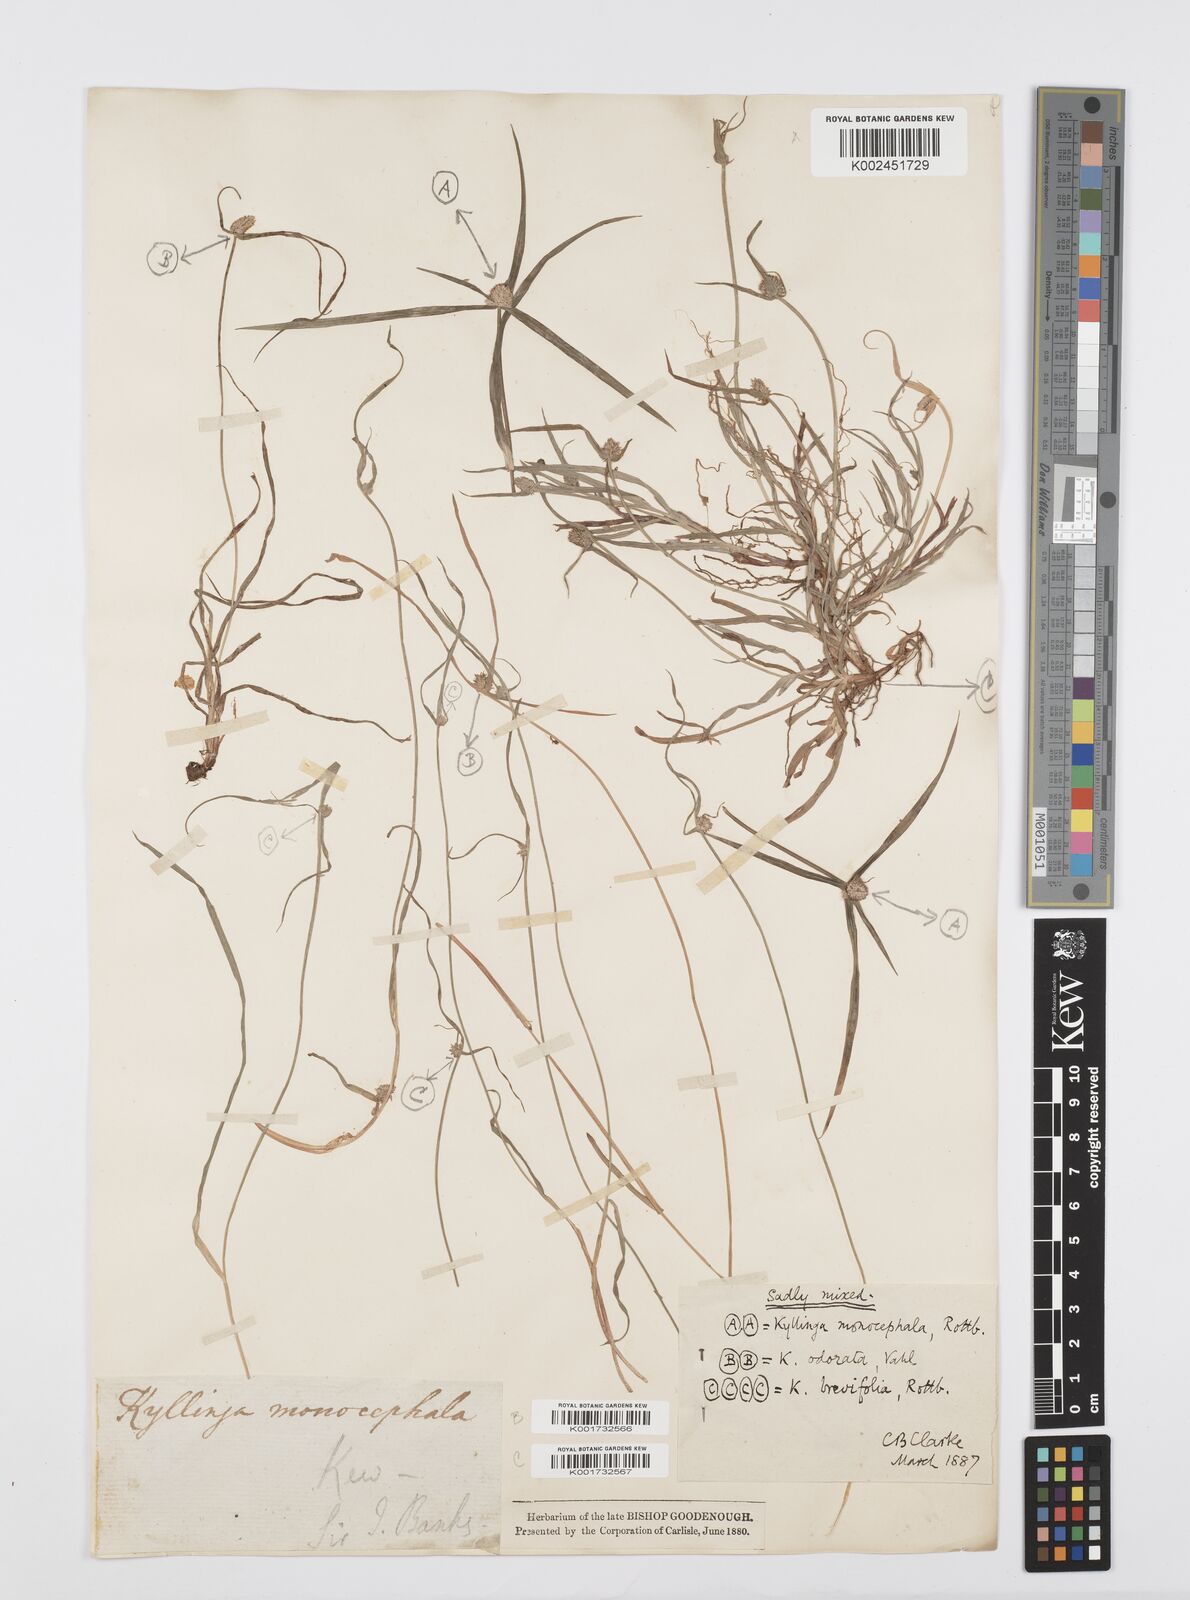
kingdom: Plantae
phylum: Tracheophyta
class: Liliopsida
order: Poales
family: Cyperaceae
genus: Cyperus
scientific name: Cyperus brevifolius
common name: Globe kyllinga
